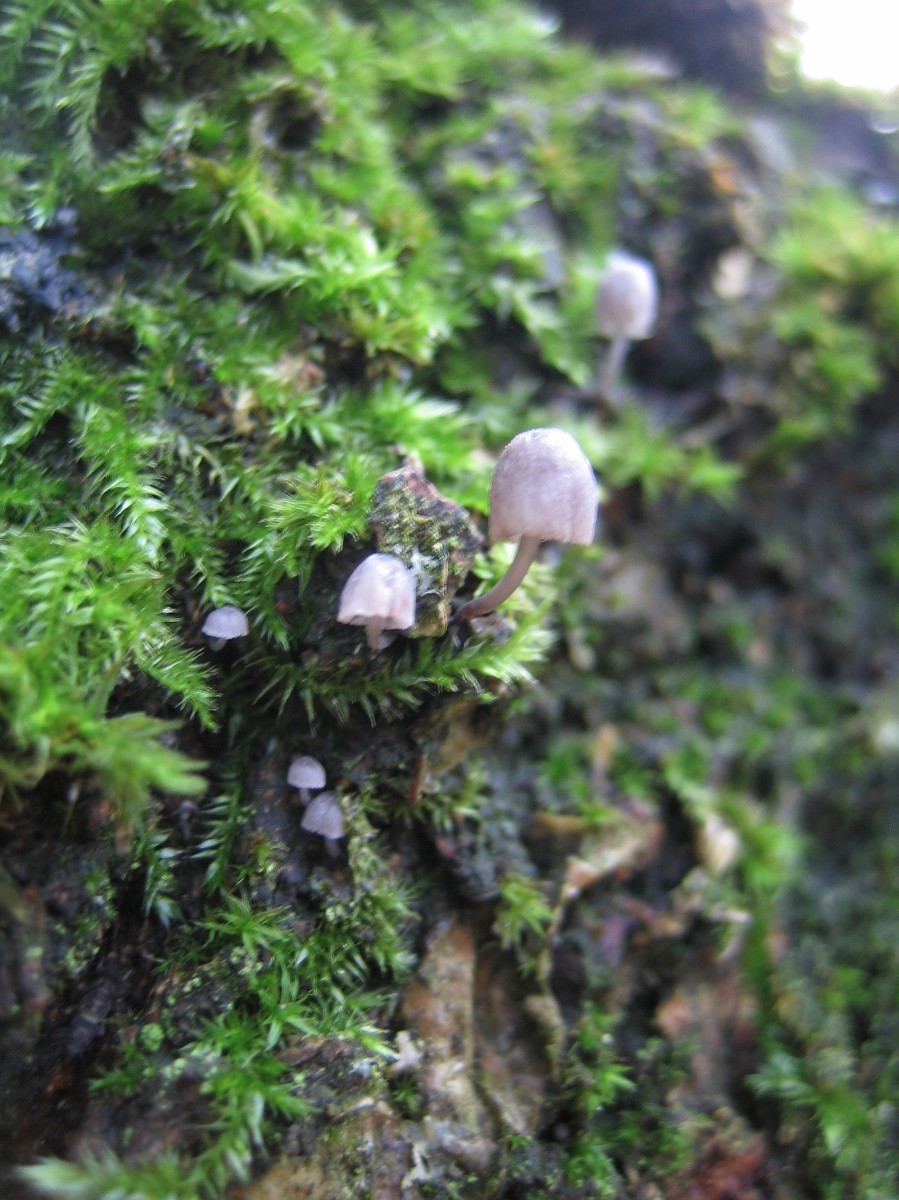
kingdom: Fungi
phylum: Basidiomycota
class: Agaricomycetes
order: Agaricales
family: Mycenaceae
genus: Mycena
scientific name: Mycena pseudocorticola
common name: gråblå bark-huesvamp
